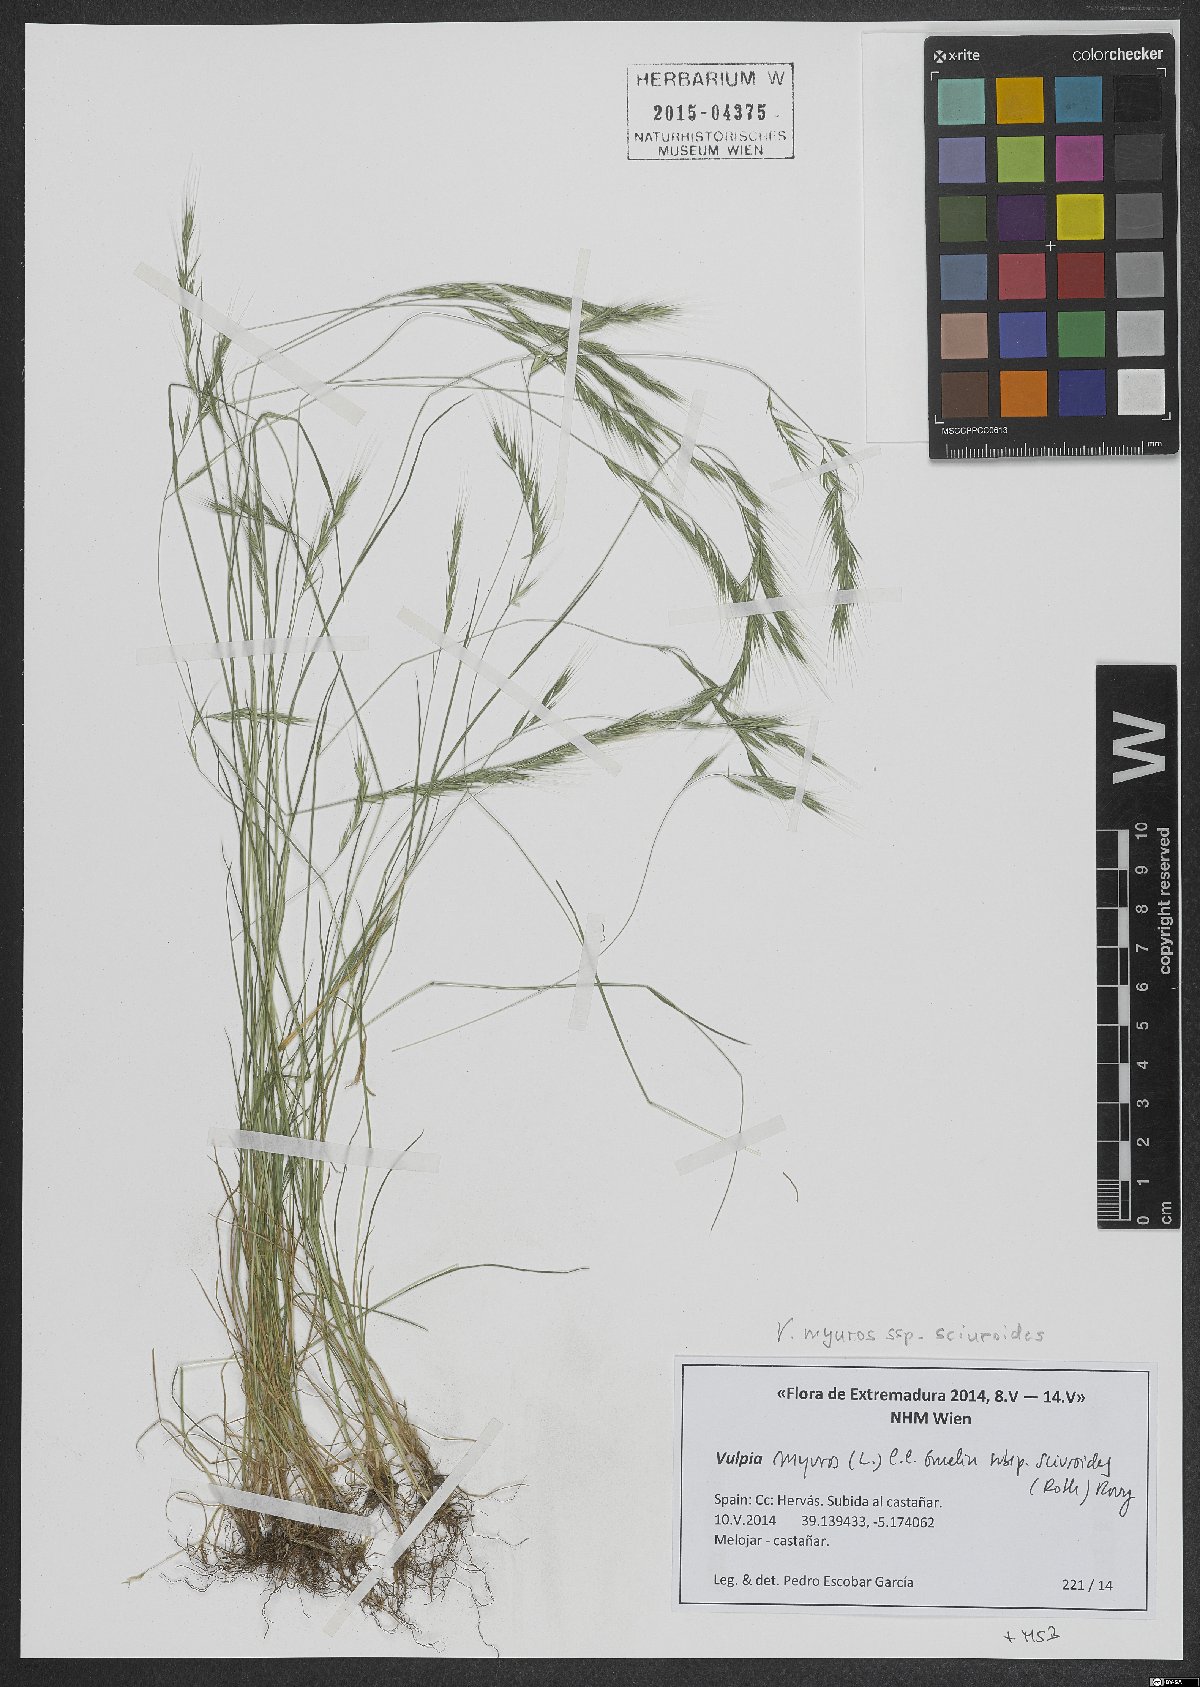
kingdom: Plantae
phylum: Tracheophyta
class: Liliopsida
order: Poales
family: Poaceae
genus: Festuca
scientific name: Festuca bromoides
